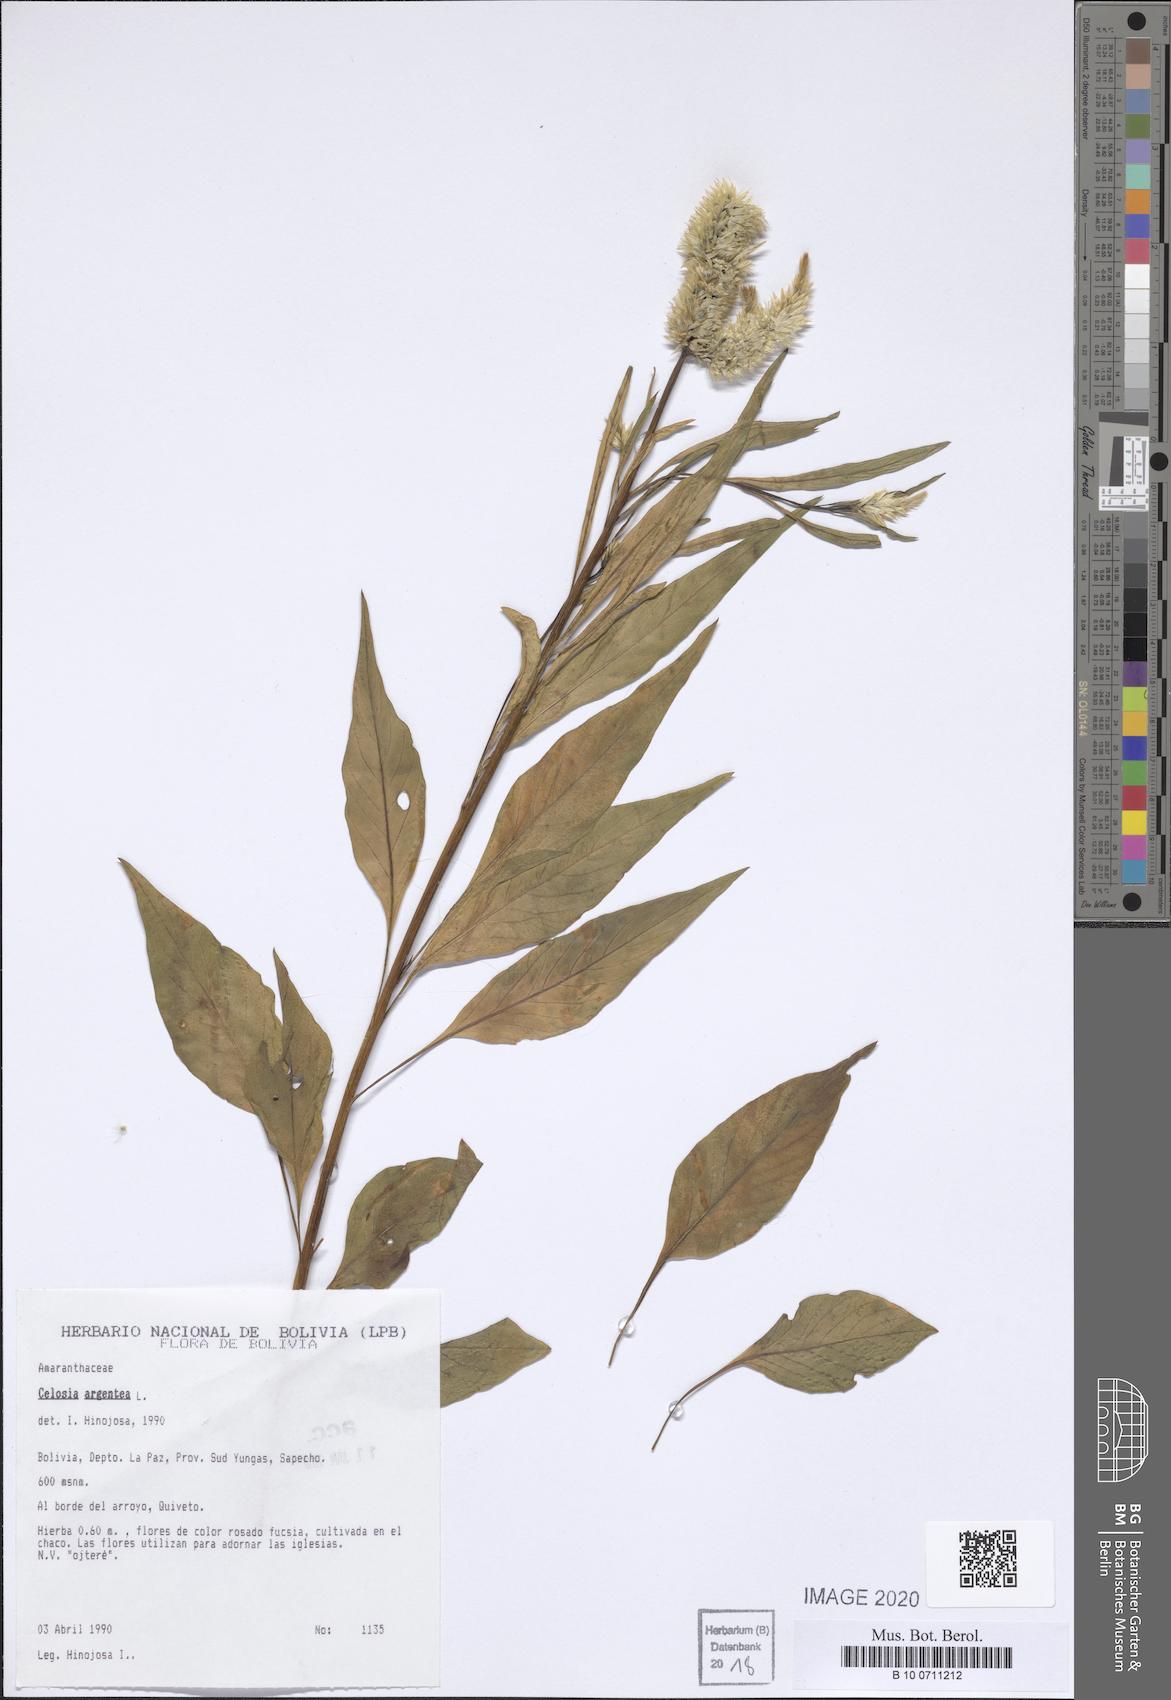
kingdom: Plantae
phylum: Tracheophyta
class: Magnoliopsida
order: Caryophyllales
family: Amaranthaceae
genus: Celosia
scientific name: Celosia argentea
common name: Feather cockscomb
